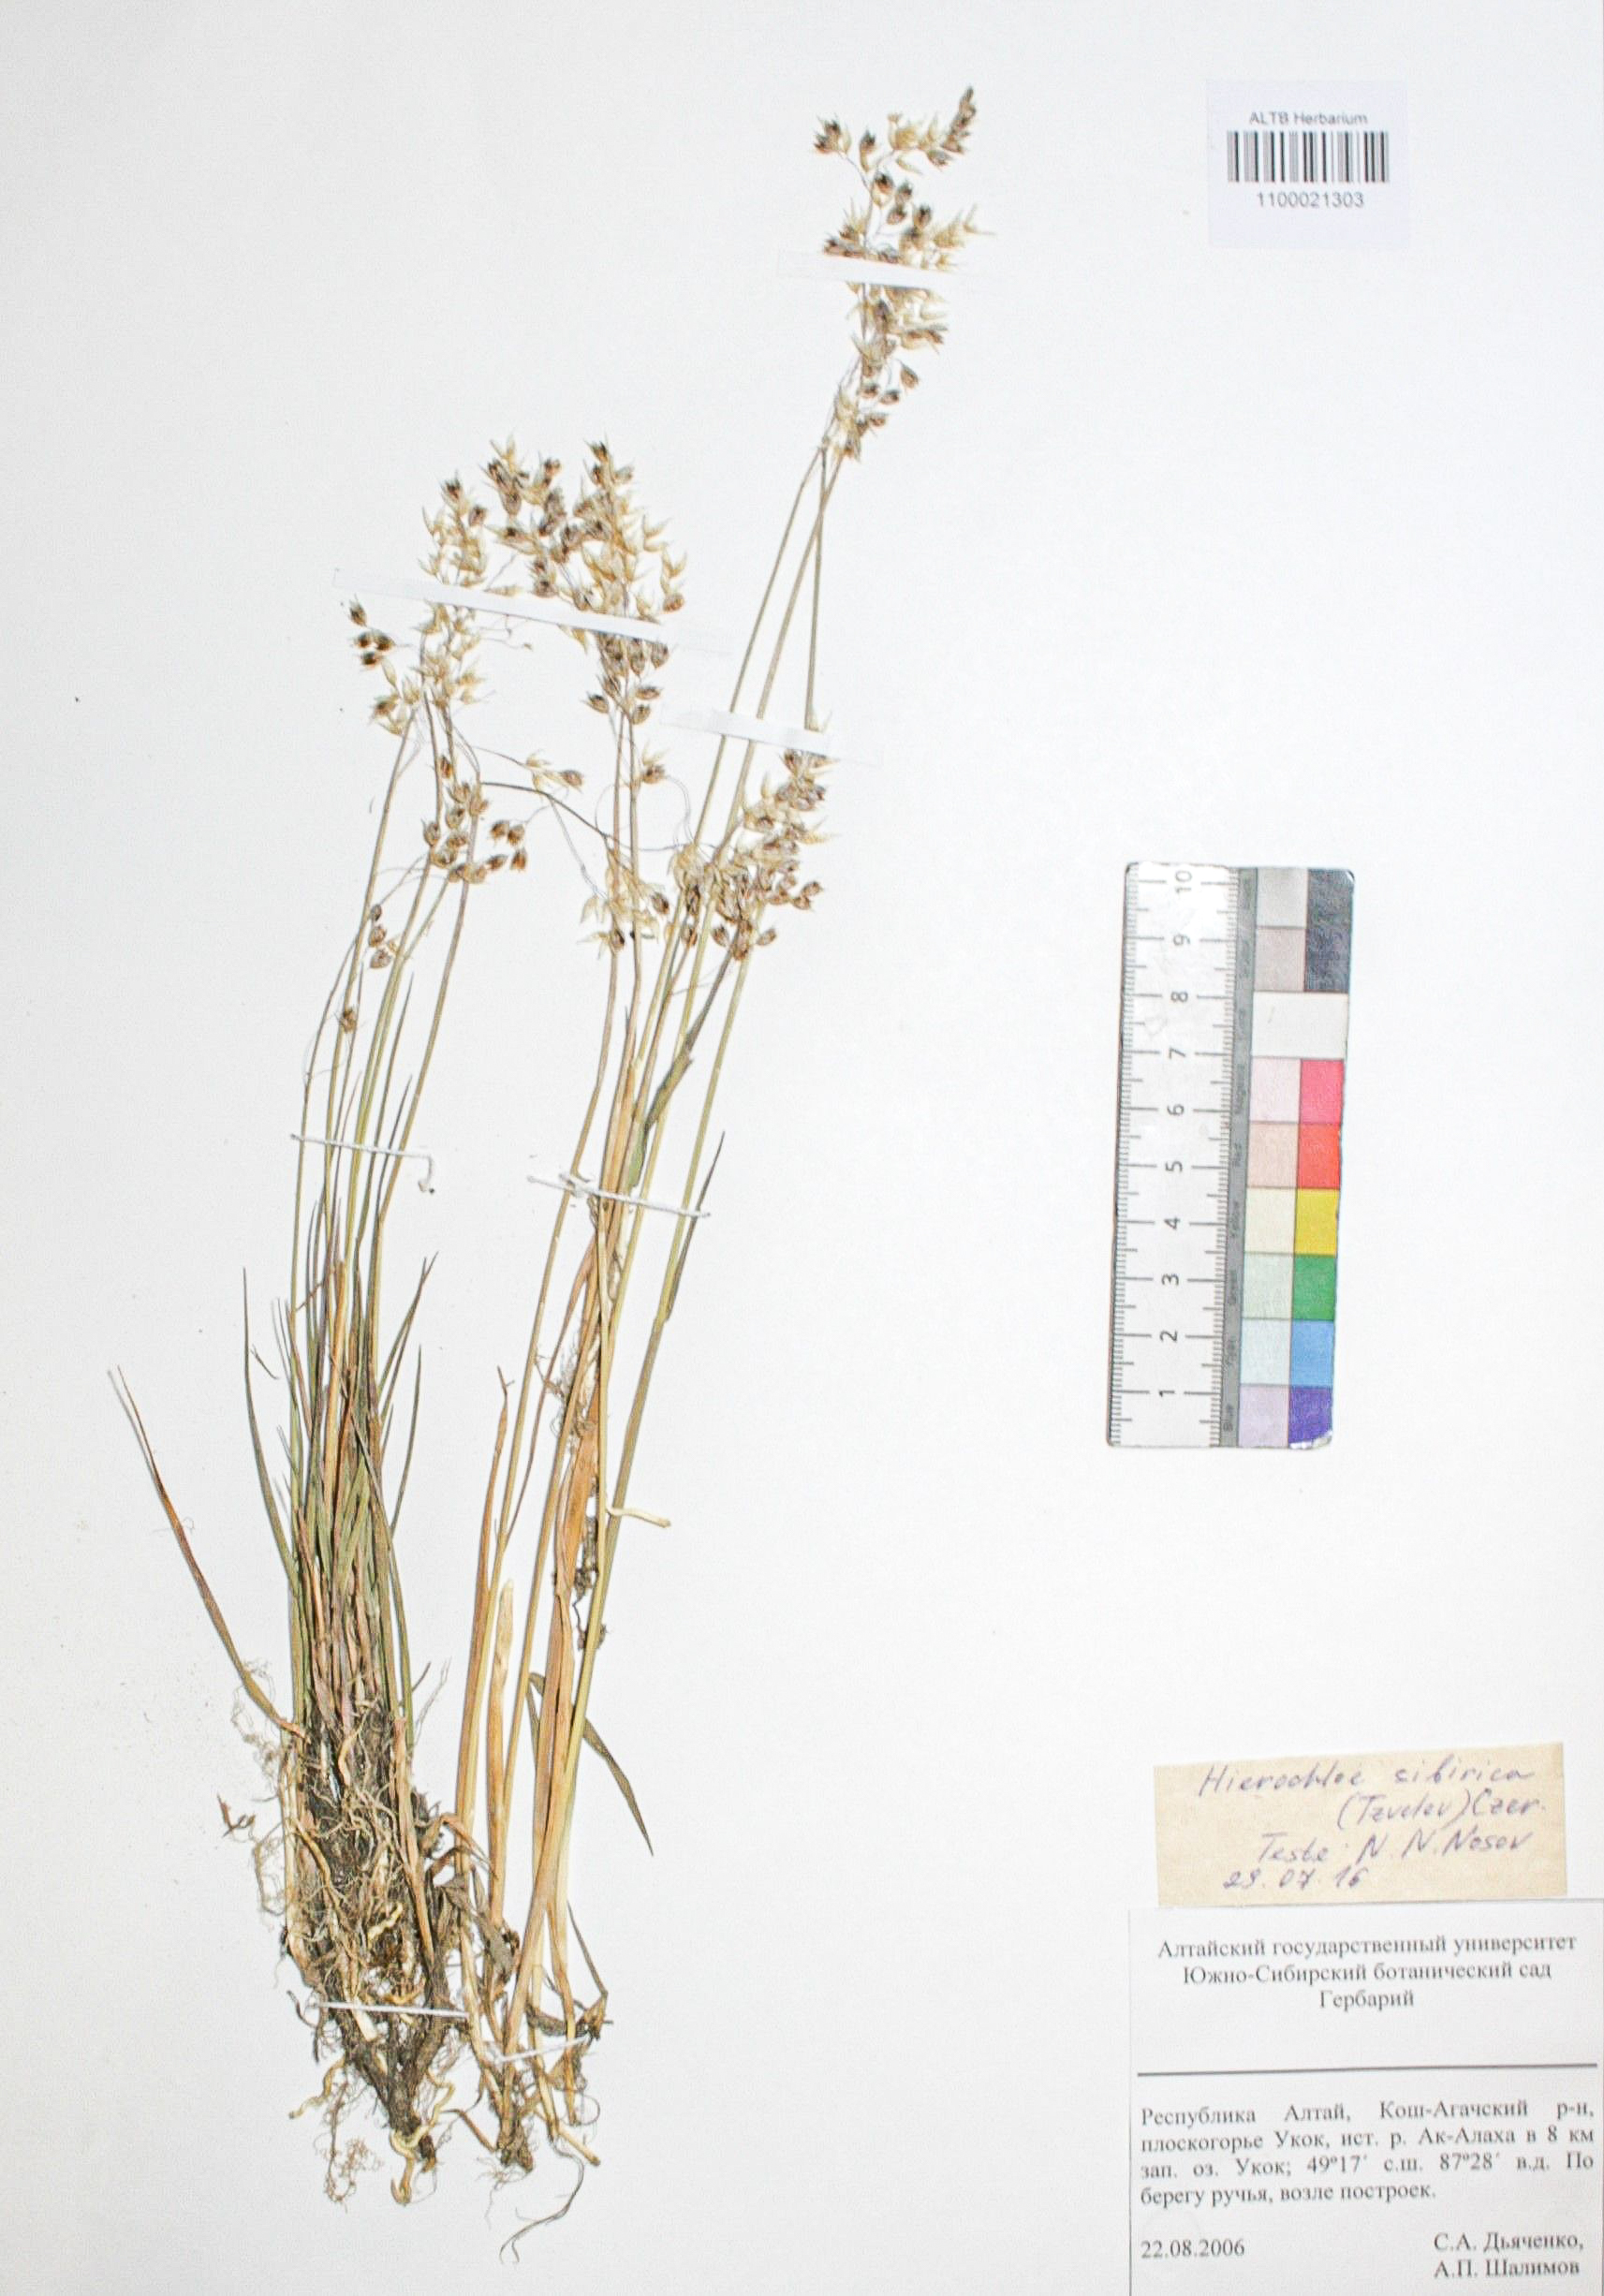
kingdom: Plantae
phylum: Tracheophyta
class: Liliopsida
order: Poales
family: Poaceae
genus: Anthoxanthum
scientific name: Anthoxanthum glabrum
